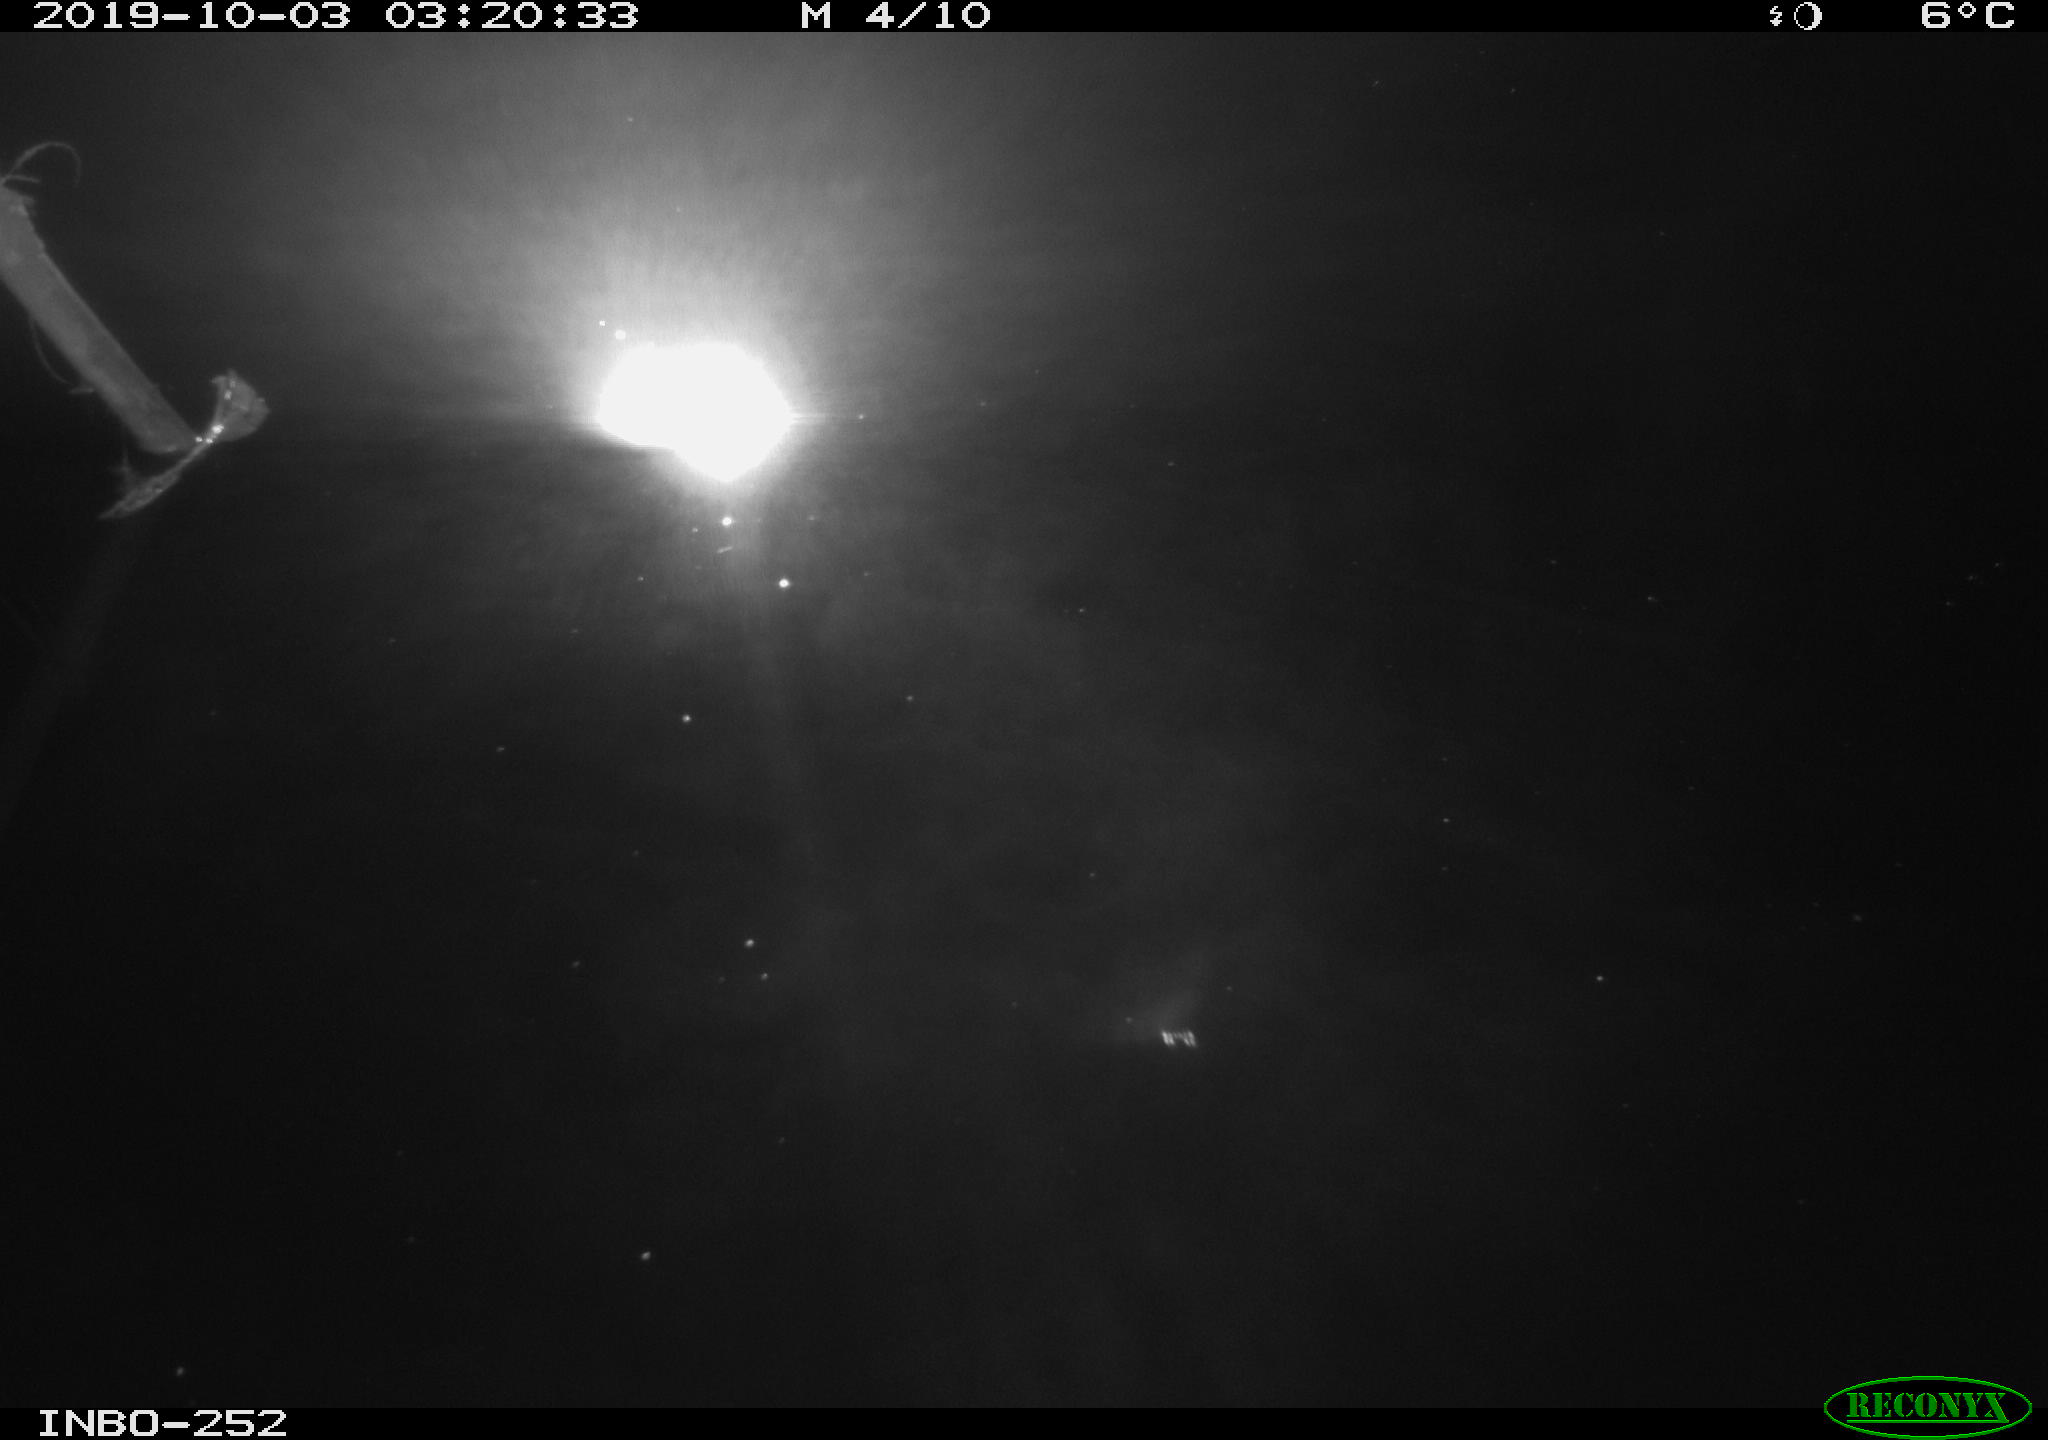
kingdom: Animalia
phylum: Chordata
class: Aves
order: Anseriformes
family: Anatidae
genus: Anas
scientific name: Anas platyrhynchos
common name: Mallard
